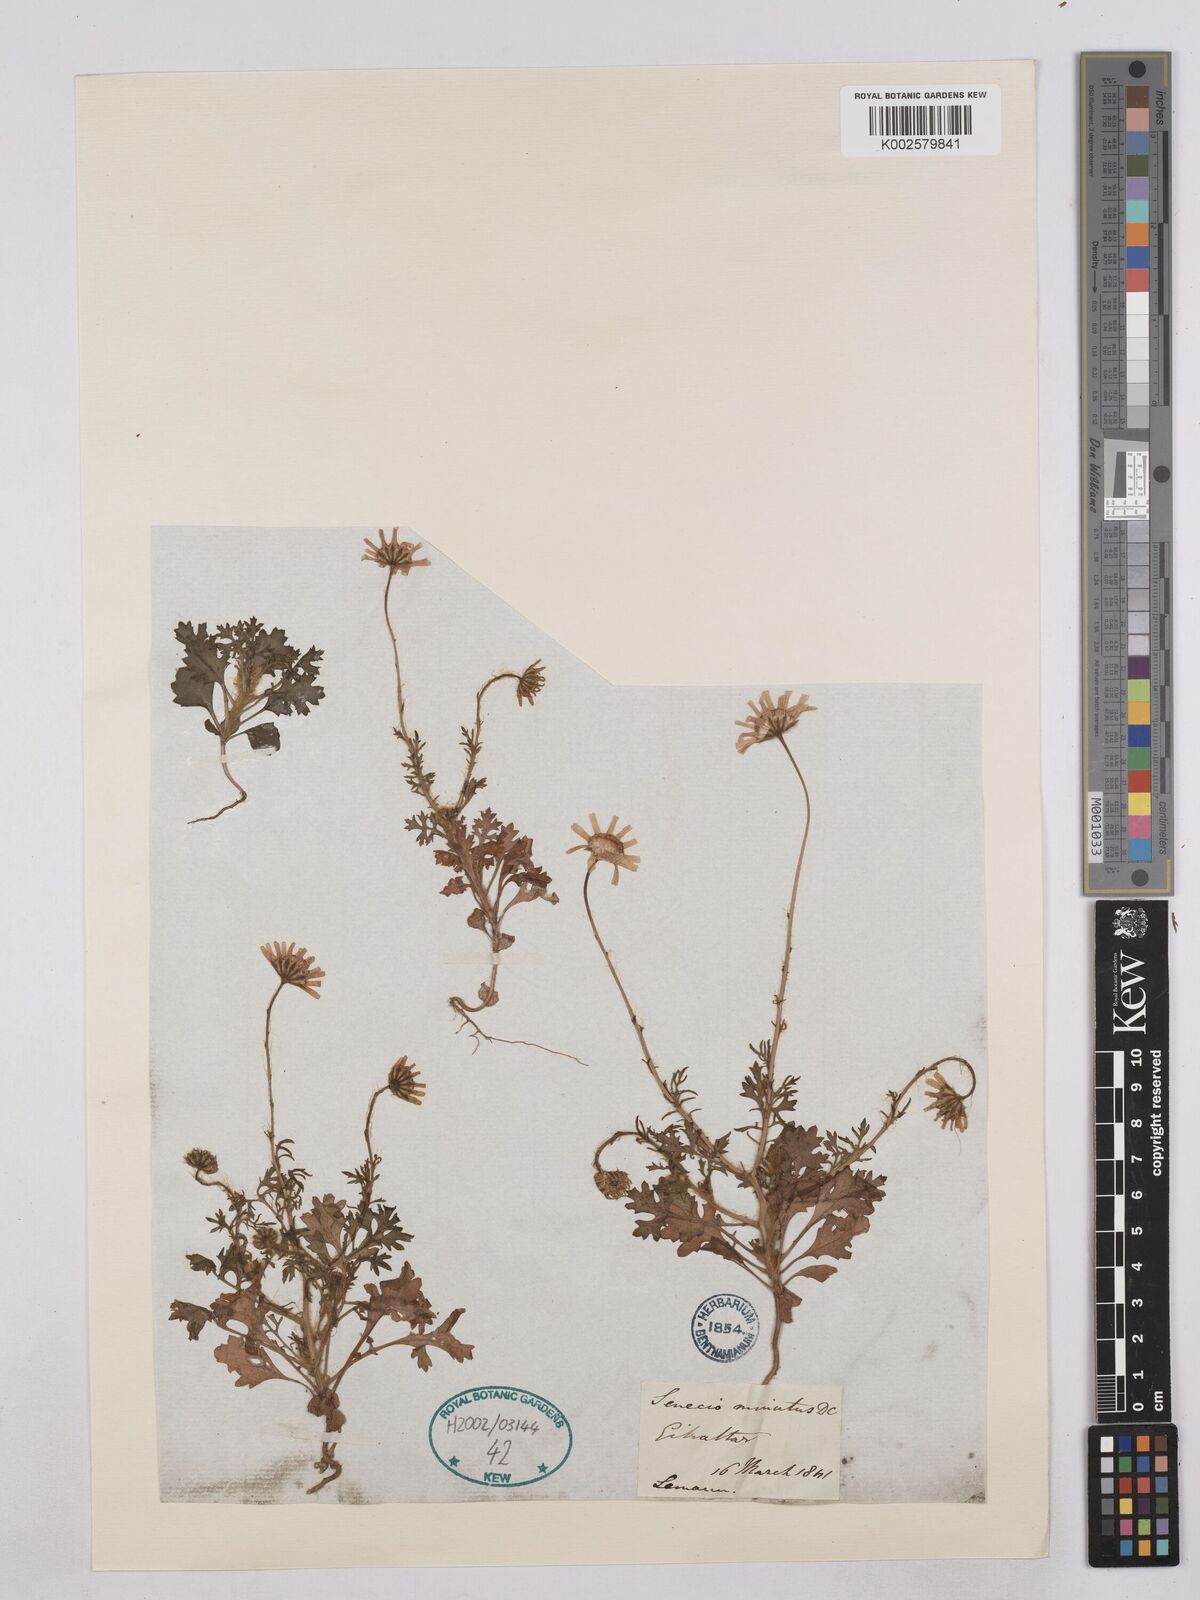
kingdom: Plantae
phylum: Tracheophyta
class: Magnoliopsida
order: Asterales
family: Asteraceae
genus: Jacobaea
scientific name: Jacobaea minuta
